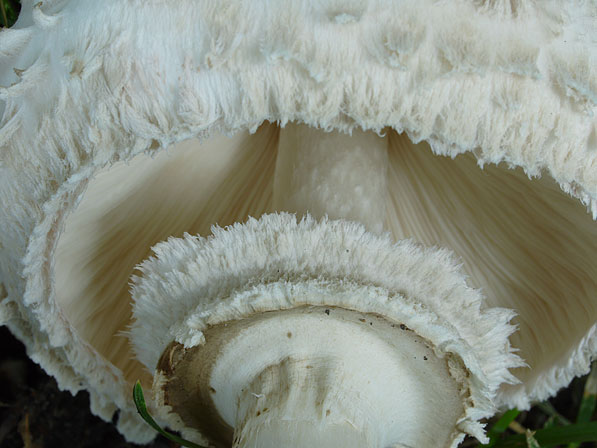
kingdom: Fungi
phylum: Basidiomycota
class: Agaricomycetes
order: Agaricales
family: Agaricaceae
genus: Chlorophyllum
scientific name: Chlorophyllum rhacodes
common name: ægte rabarberhat
